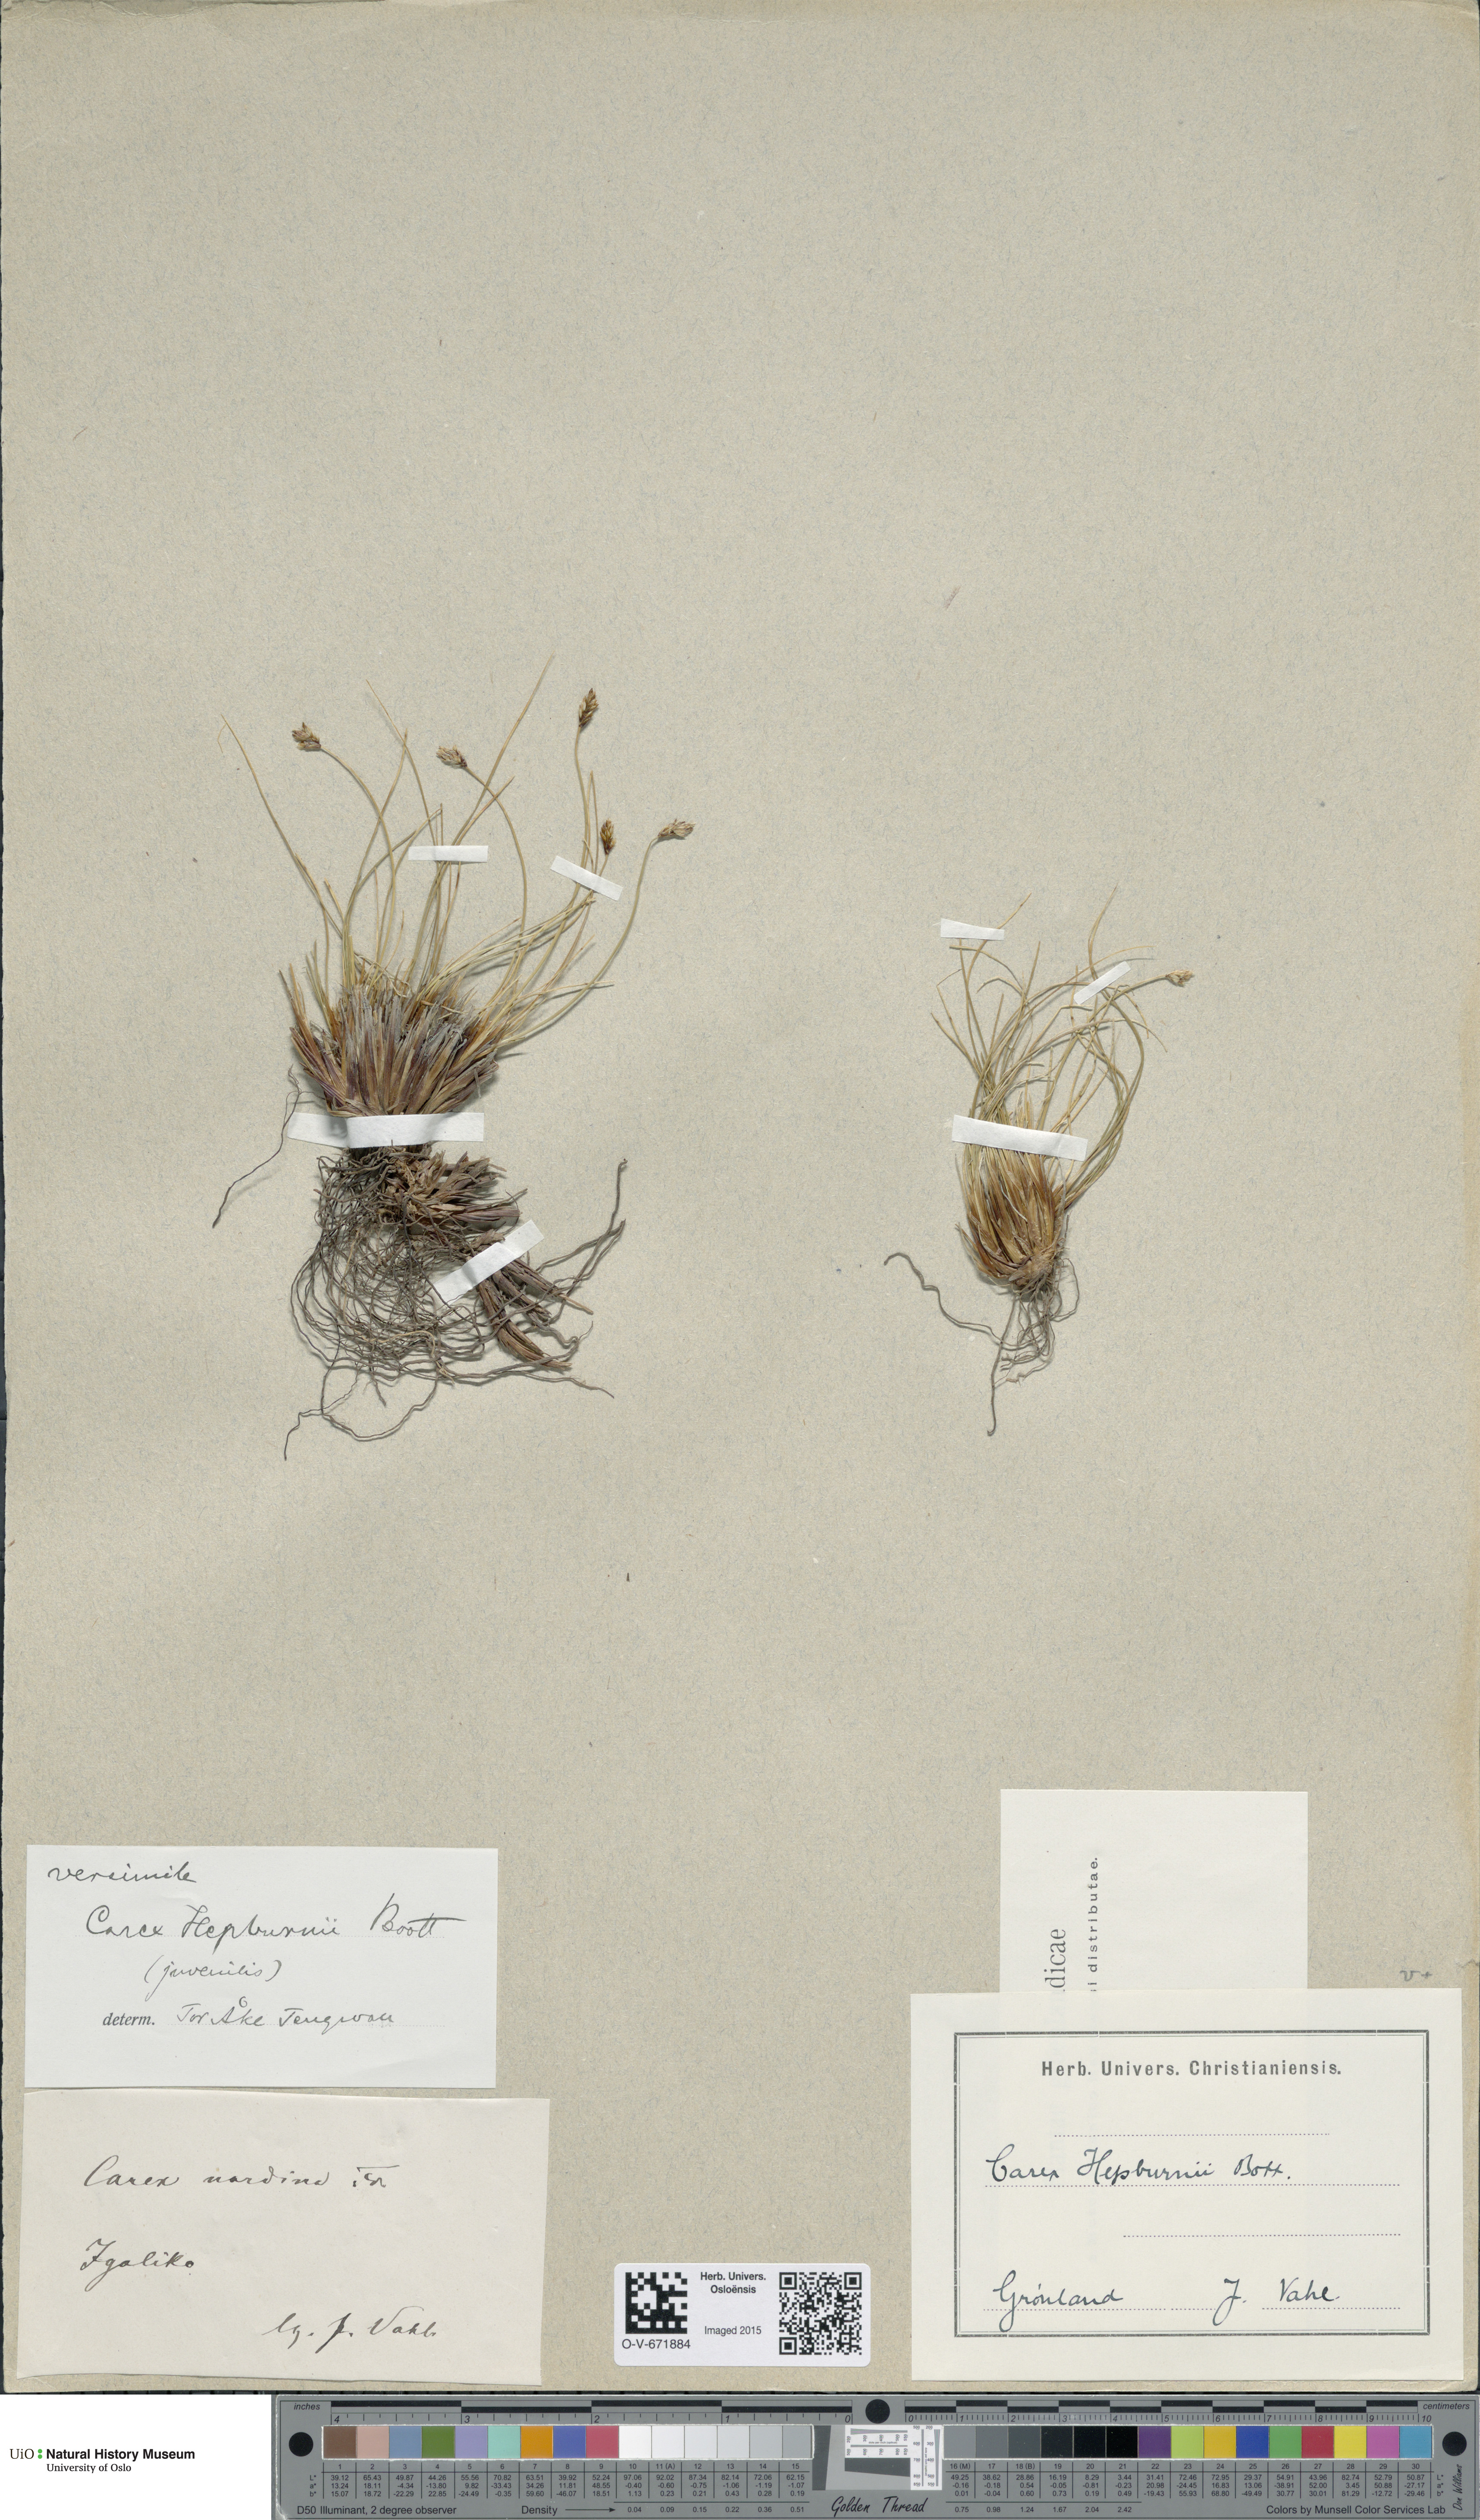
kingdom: Plantae
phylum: Tracheophyta
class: Liliopsida
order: Poales
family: Cyperaceae
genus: Carex
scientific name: Carex nardina
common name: Nard sedge
